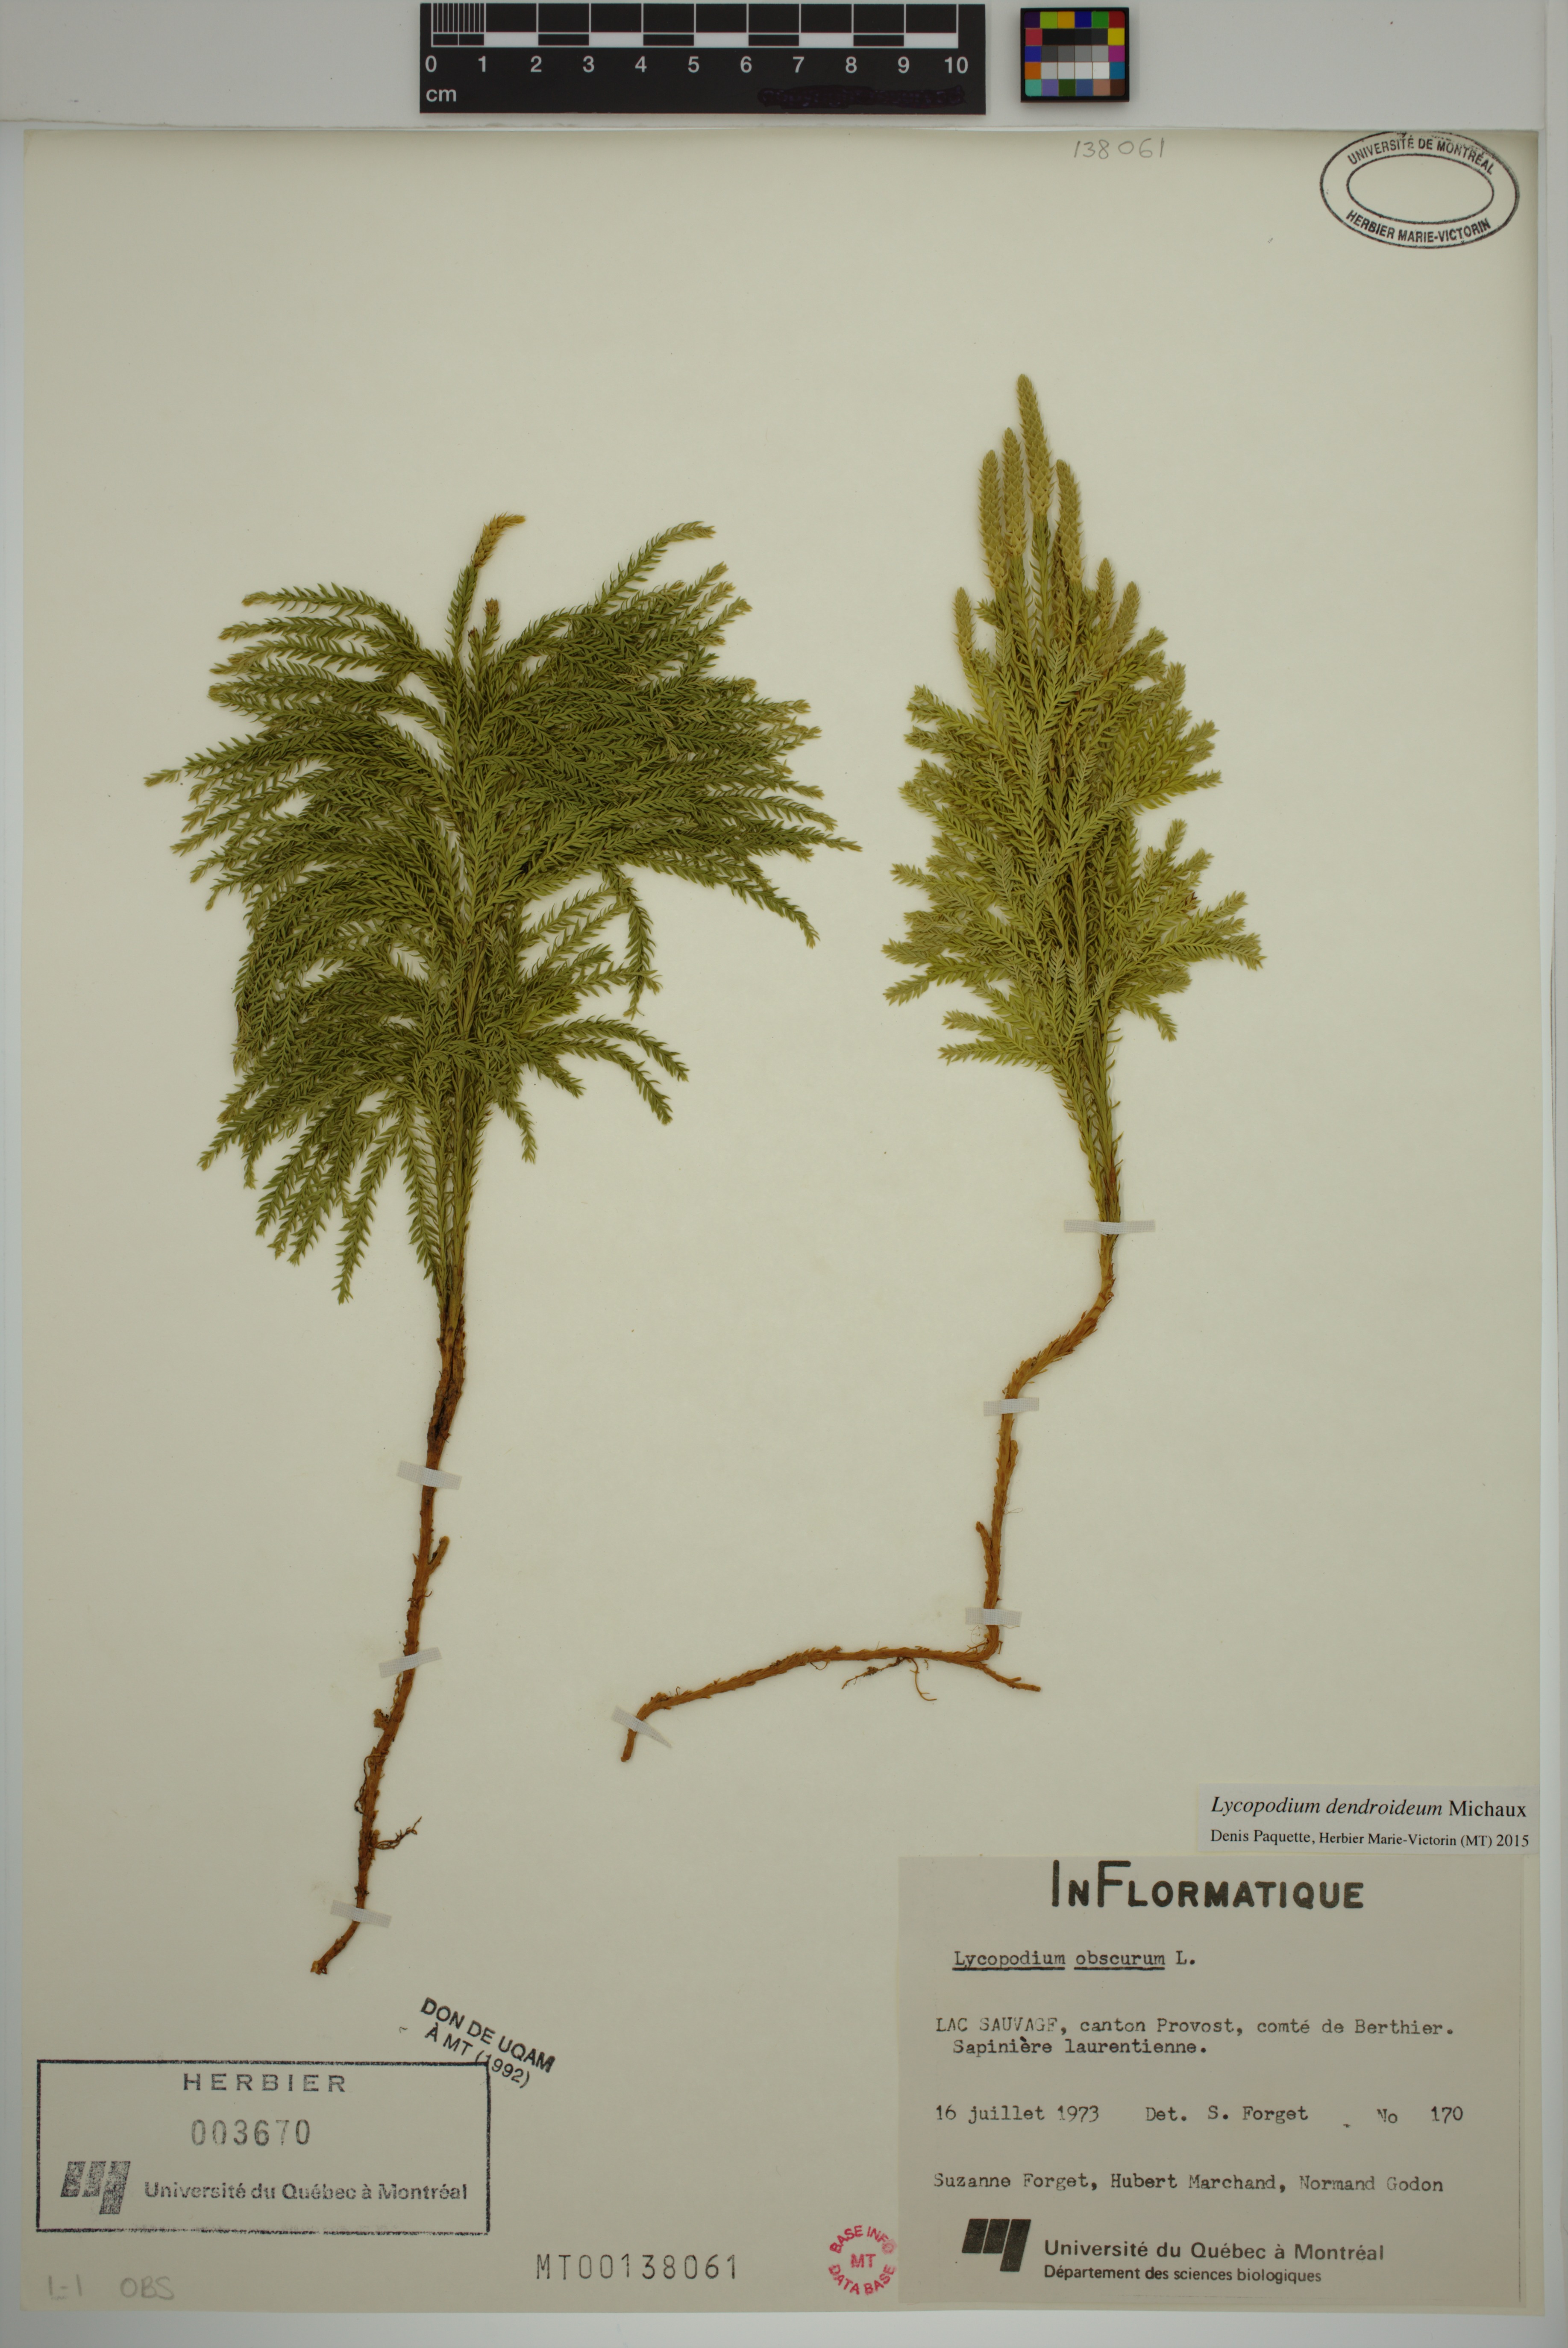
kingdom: Plantae
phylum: Tracheophyta
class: Lycopodiopsida
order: Lycopodiales
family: Lycopodiaceae
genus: Dendrolycopodium
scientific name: Dendrolycopodium dendroideum
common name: Northern tree-clubmoss
